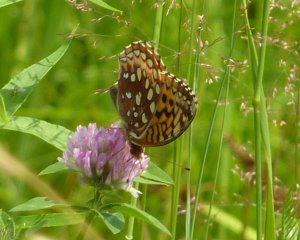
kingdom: Animalia
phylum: Arthropoda
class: Insecta
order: Lepidoptera
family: Nymphalidae
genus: Speyeria
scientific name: Speyeria cybele
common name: Great Spangled Fritillary
